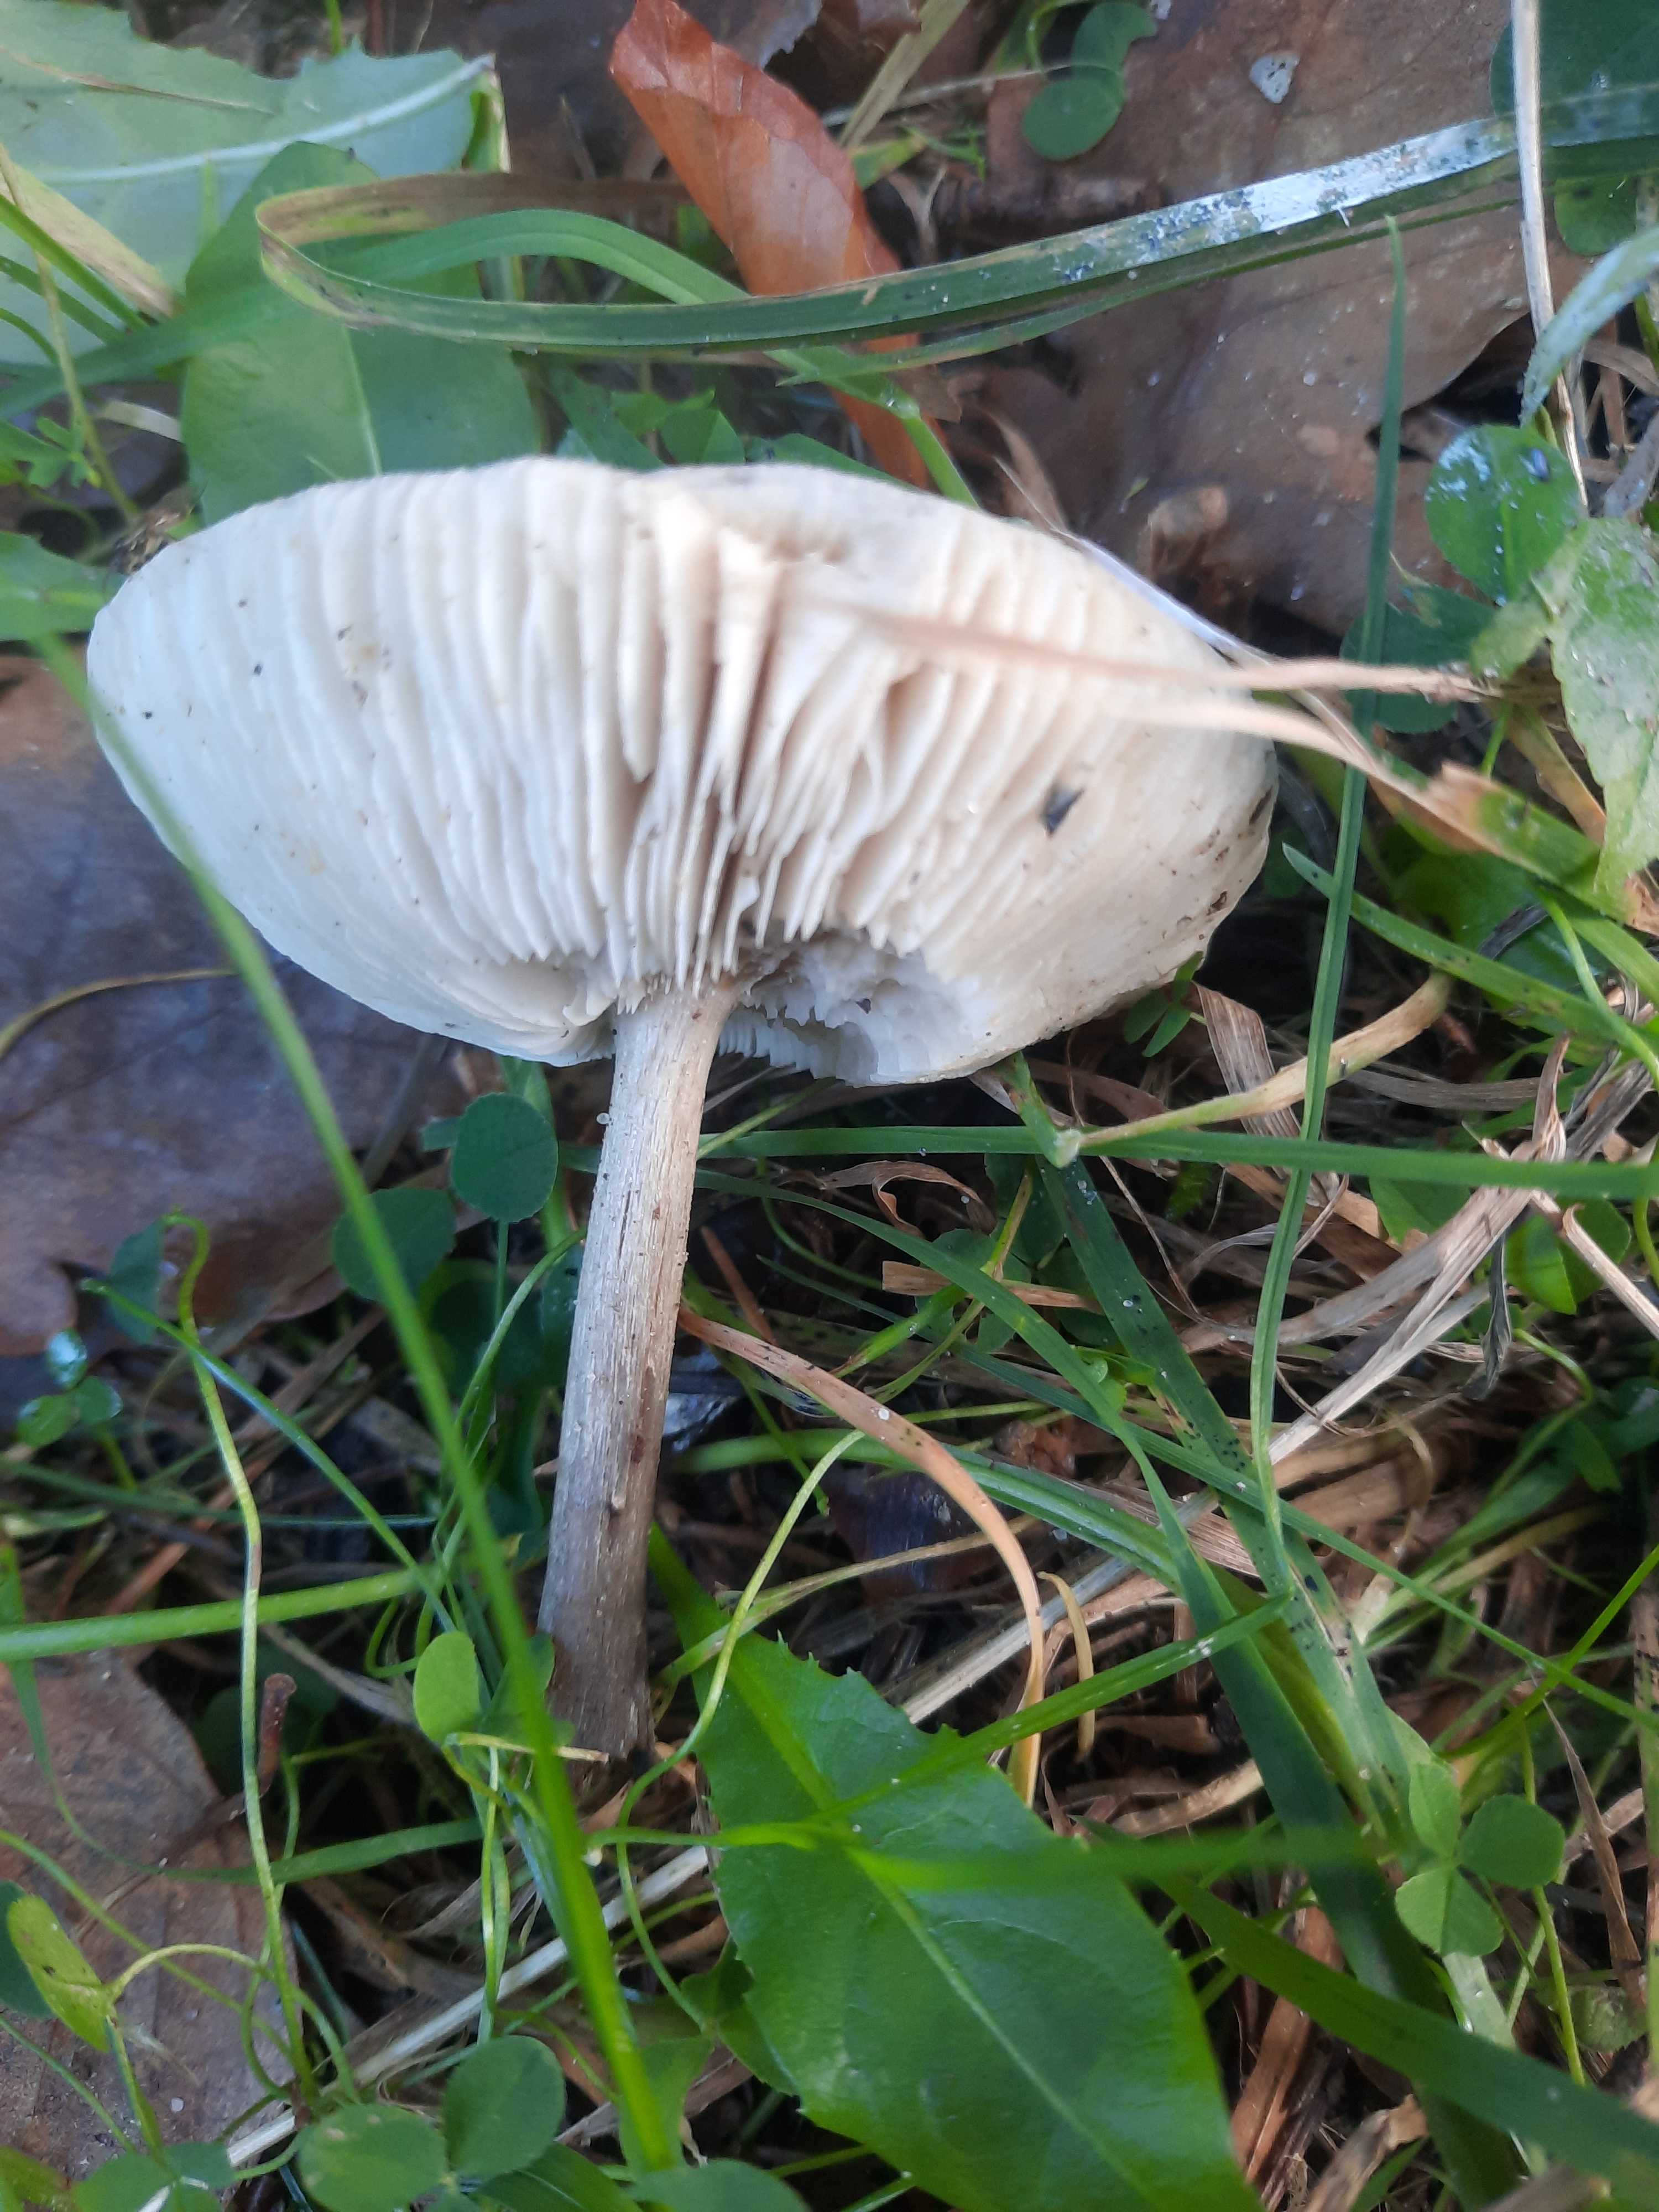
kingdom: Fungi
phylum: Basidiomycota
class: Agaricomycetes
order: Agaricales
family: Tricholomataceae
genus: Melanoleuca
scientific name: Melanoleuca
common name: munkehat
